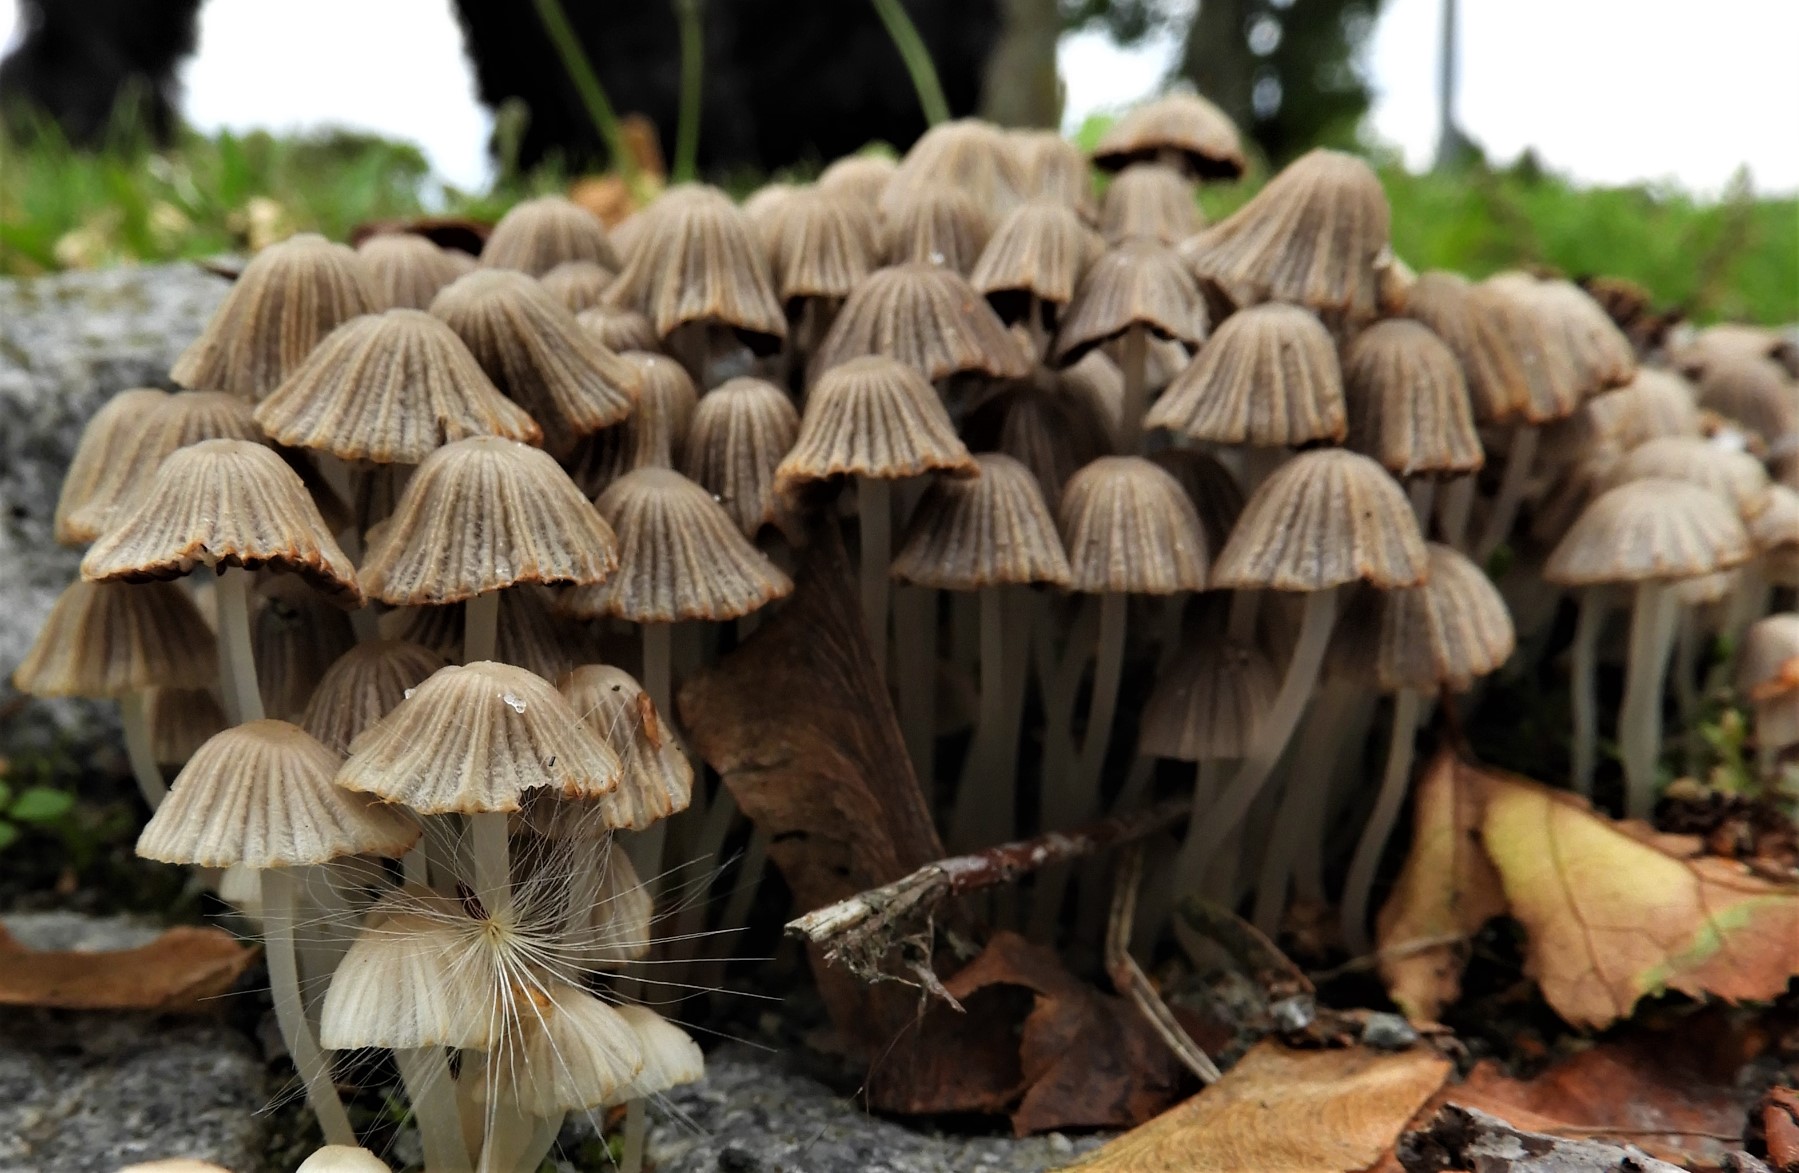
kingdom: Fungi
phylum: Basidiomycota
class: Agaricomycetes
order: Agaricales
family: Psathyrellaceae
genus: Coprinellus
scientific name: Coprinellus disseminatus
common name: bredsået blækhat
